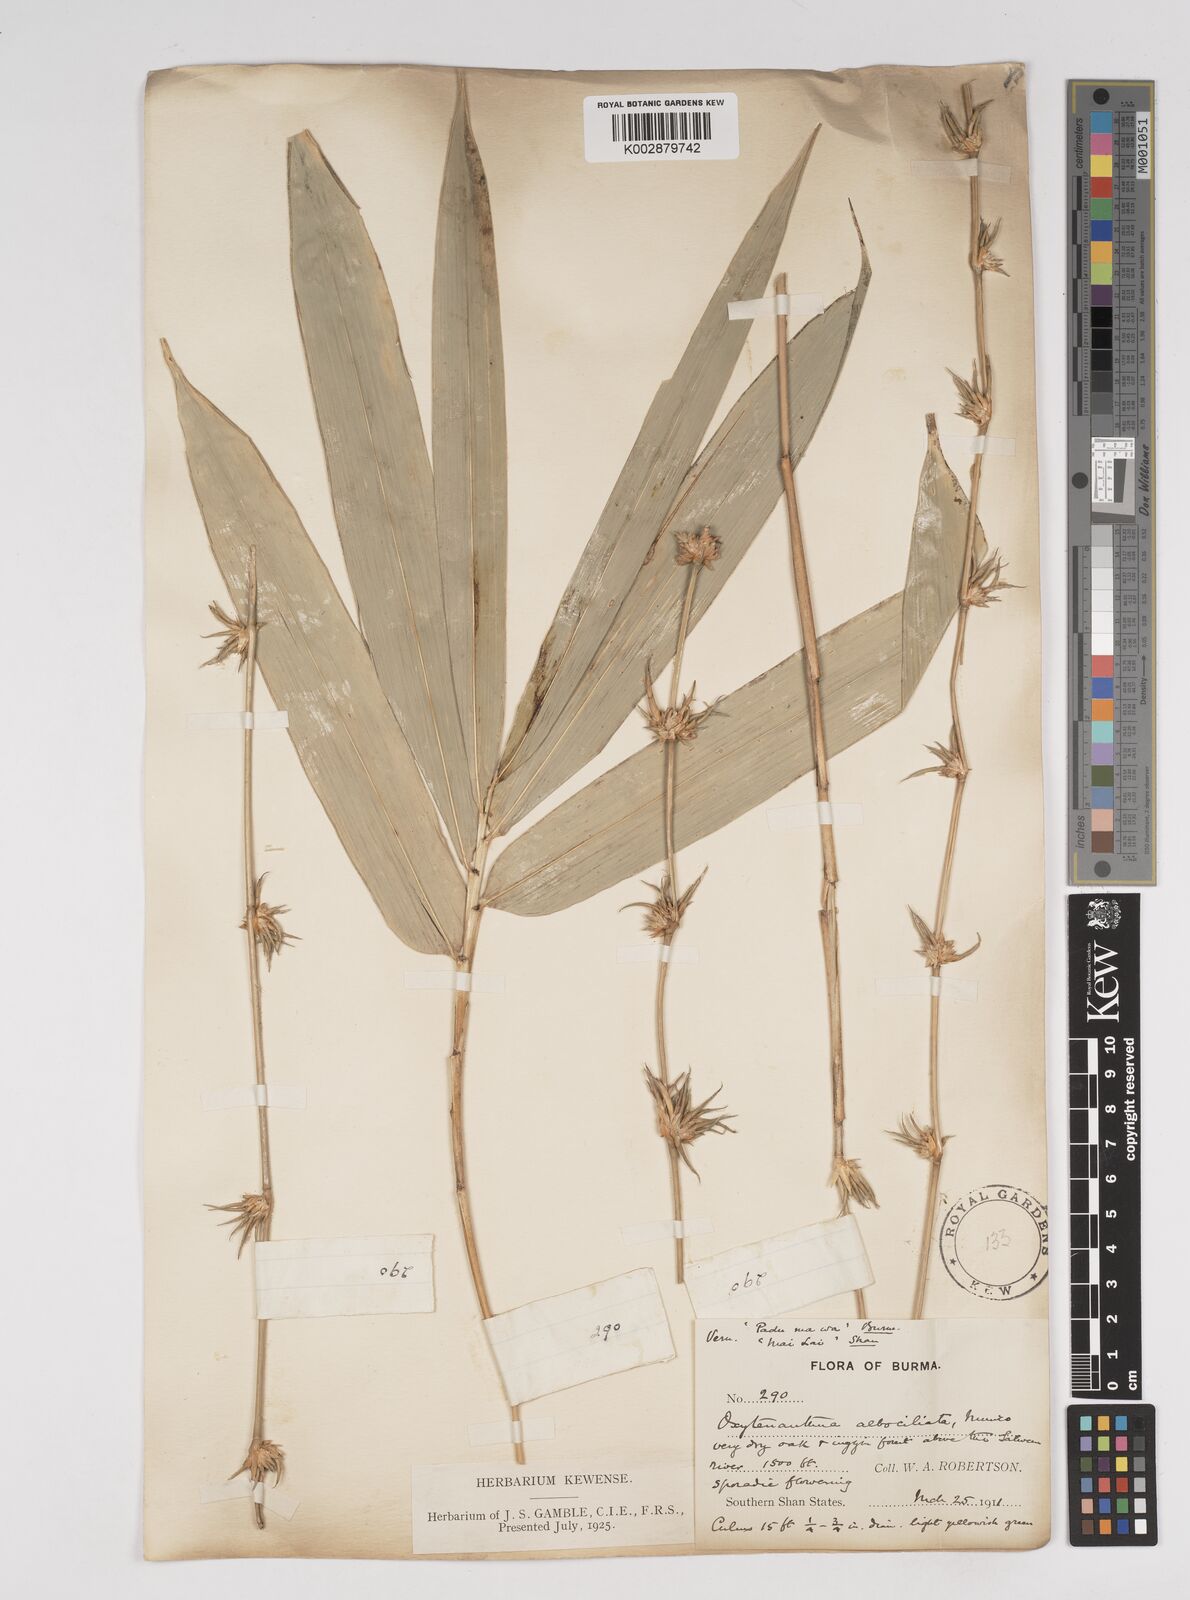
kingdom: Plantae
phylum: Tracheophyta
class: Liliopsida
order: Poales
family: Poaceae
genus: Gigantochloa
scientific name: Gigantochloa albociliata
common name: White-fringe gigantochloa
